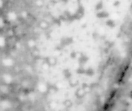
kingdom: Animalia
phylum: Chordata
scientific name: Chordata
